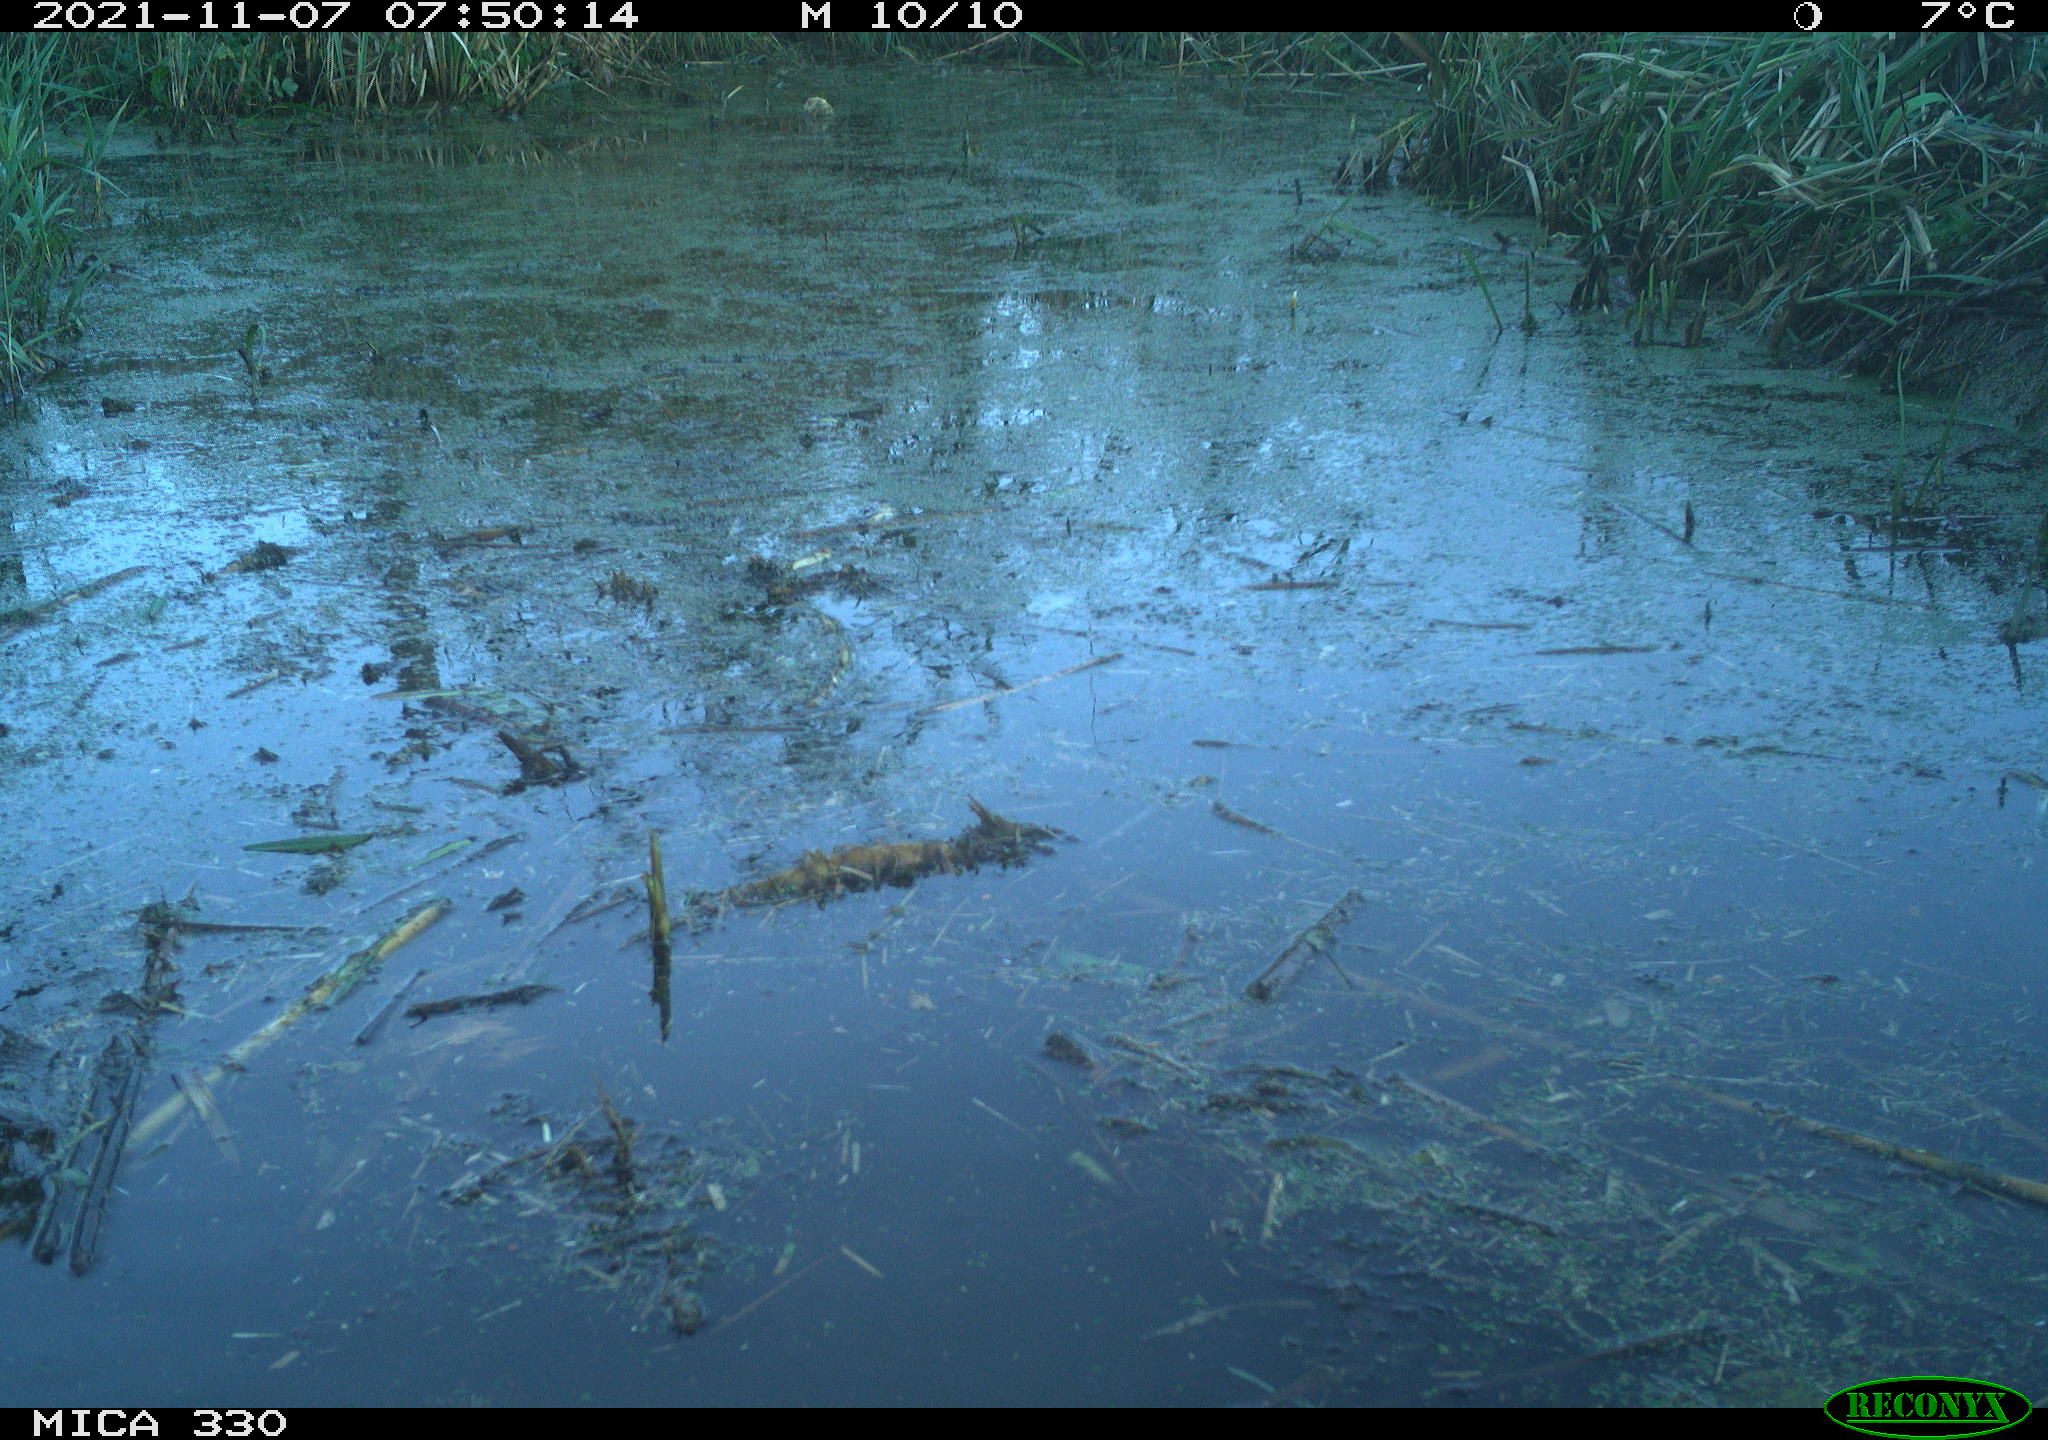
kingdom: Animalia
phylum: Chordata
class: Aves
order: Gruiformes
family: Rallidae
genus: Gallinula
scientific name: Gallinula chloropus
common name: Common moorhen
